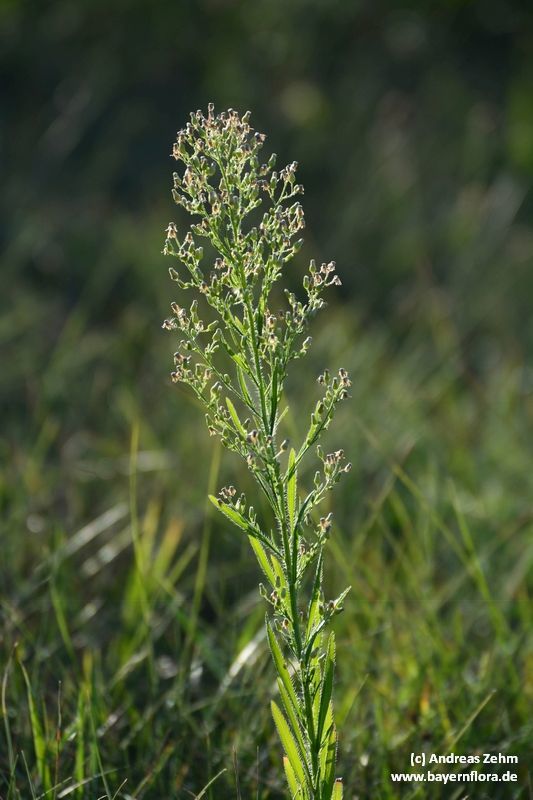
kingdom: Plantae
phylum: Tracheophyta
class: Magnoliopsida
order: Asterales
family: Asteraceae
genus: Erigeron
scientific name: Erigeron canadensis
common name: Canadian fleabane
